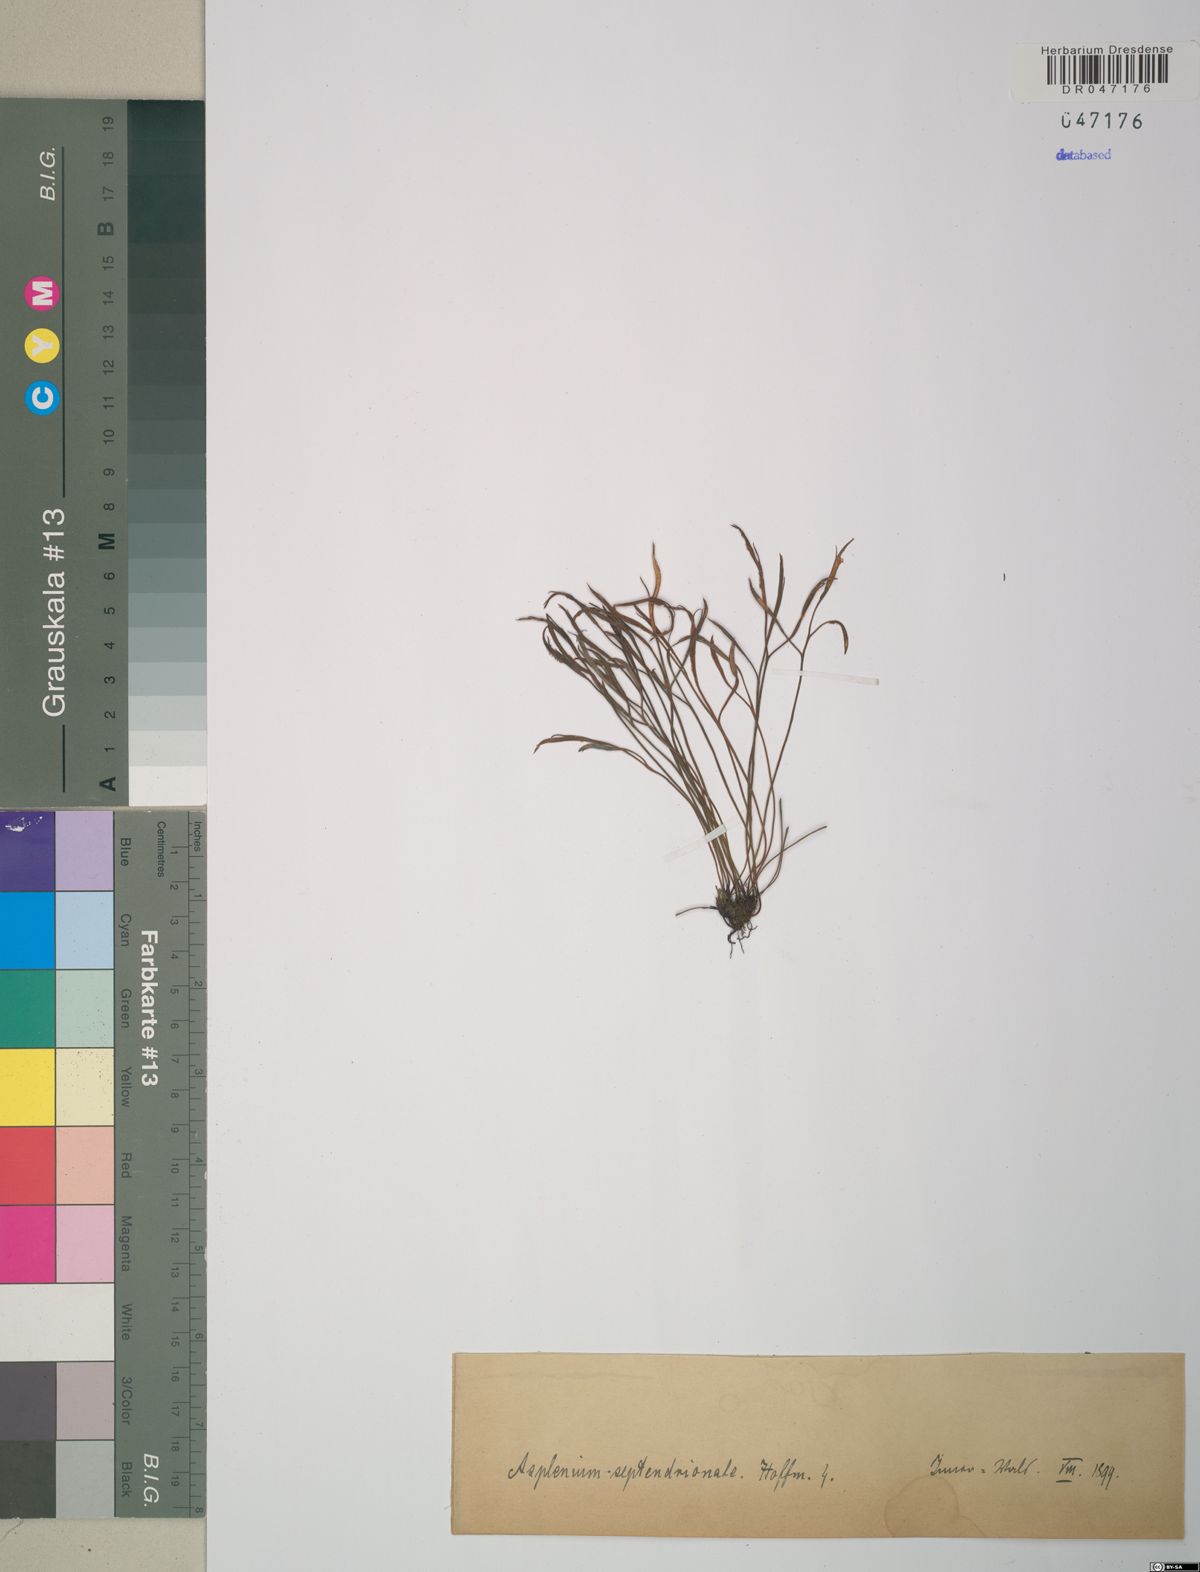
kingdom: Plantae
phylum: Tracheophyta
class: Polypodiopsida
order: Polypodiales
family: Aspleniaceae
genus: Asplenium
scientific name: Asplenium septentrionale
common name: Forked spleenwort
